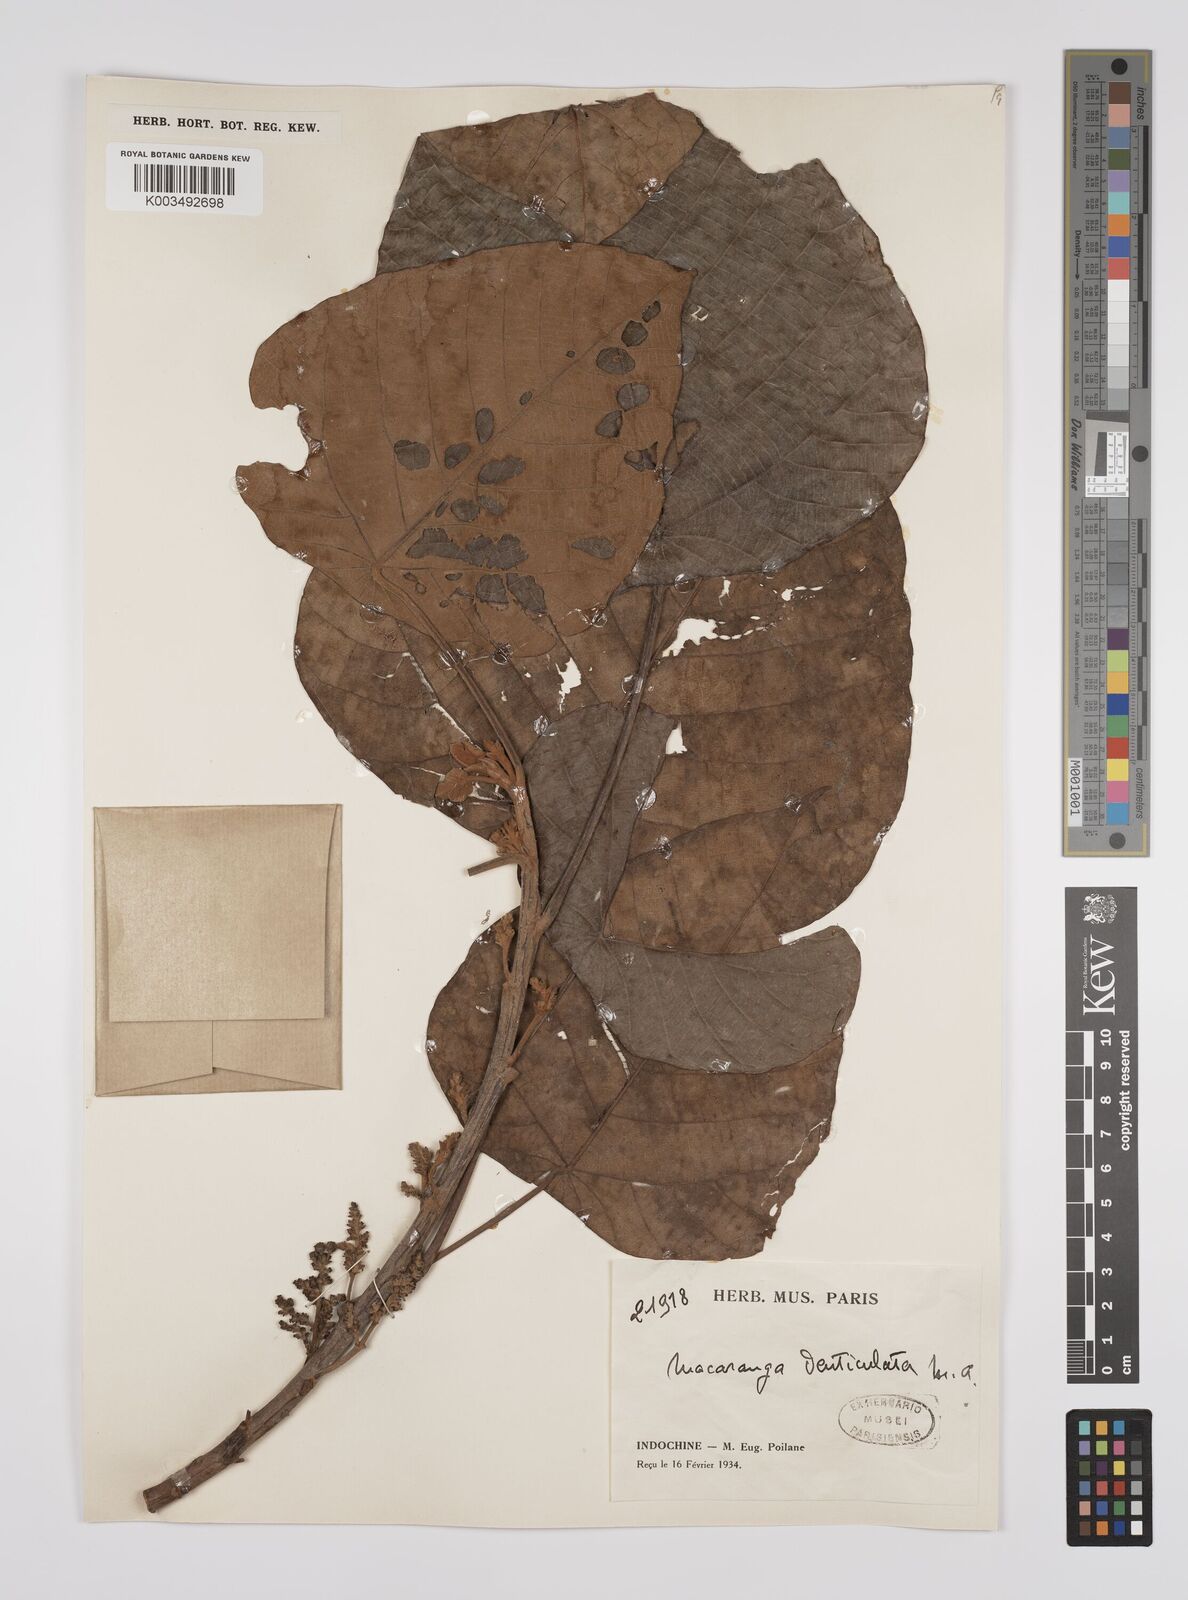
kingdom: Plantae
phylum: Tracheophyta
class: Magnoliopsida
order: Malpighiales
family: Euphorbiaceae
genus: Macaranga
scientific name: Macaranga denticulata
